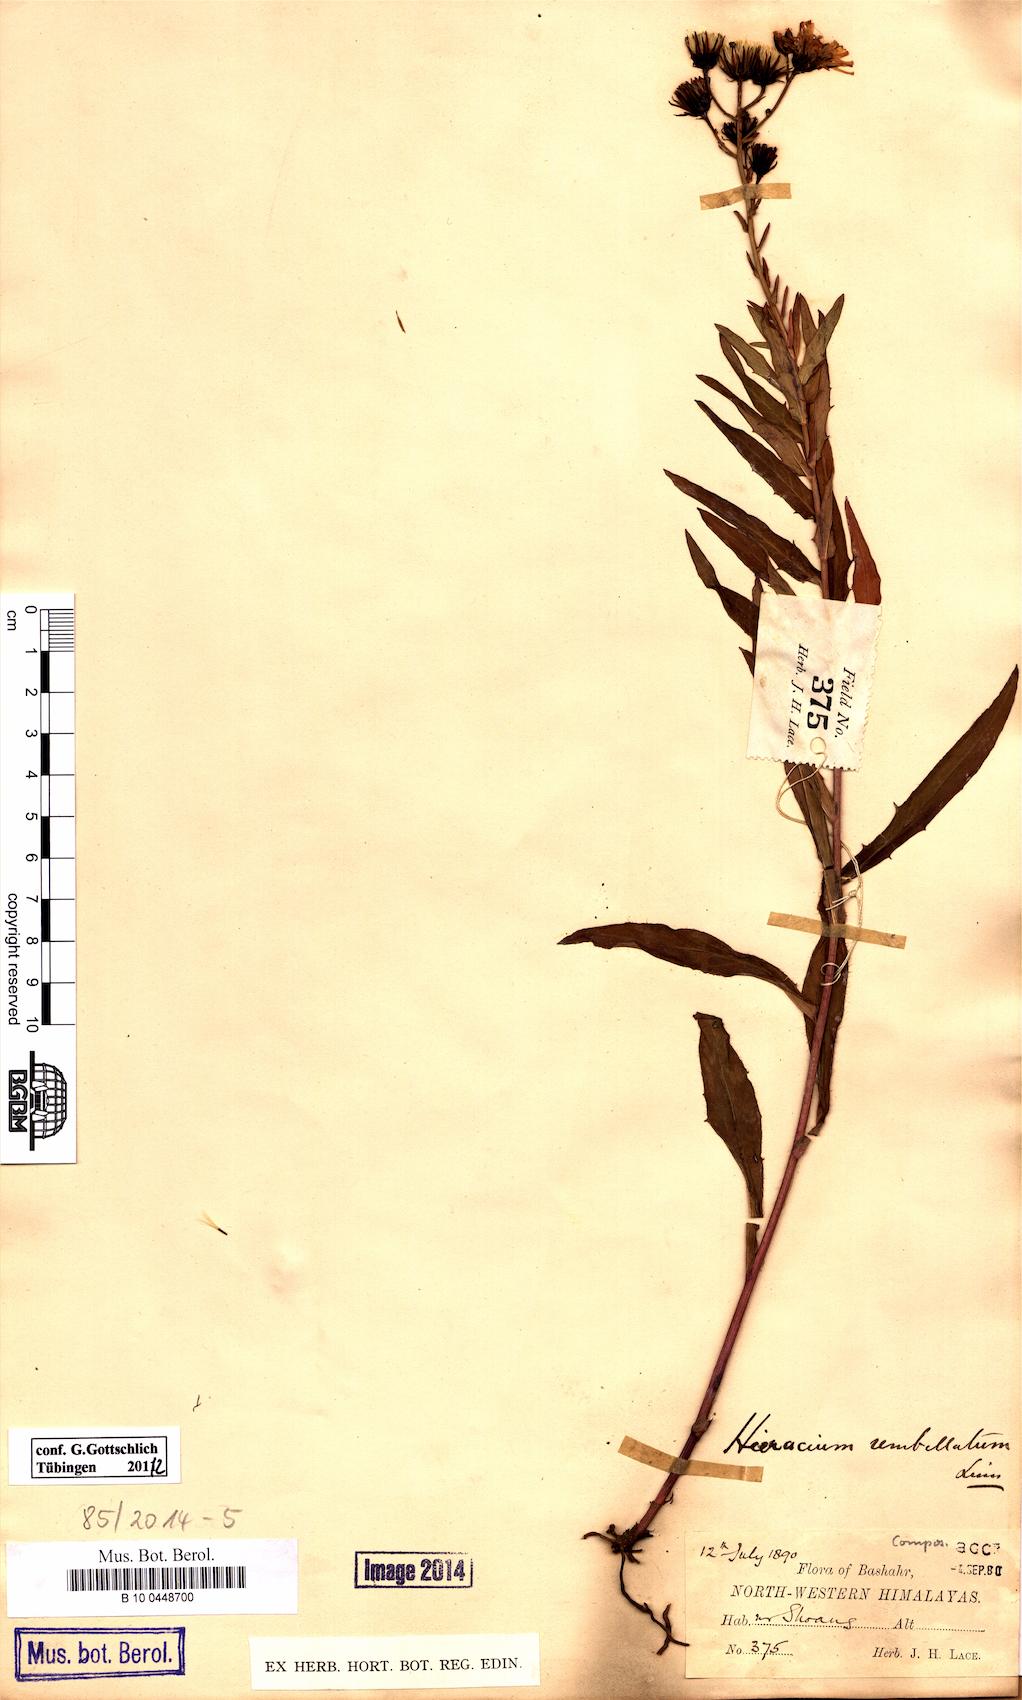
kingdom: Plantae
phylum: Tracheophyta
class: Magnoliopsida
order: Asterales
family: Asteraceae
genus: Hieracium
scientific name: Hieracium umbellatum
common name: Northern hawkweed
